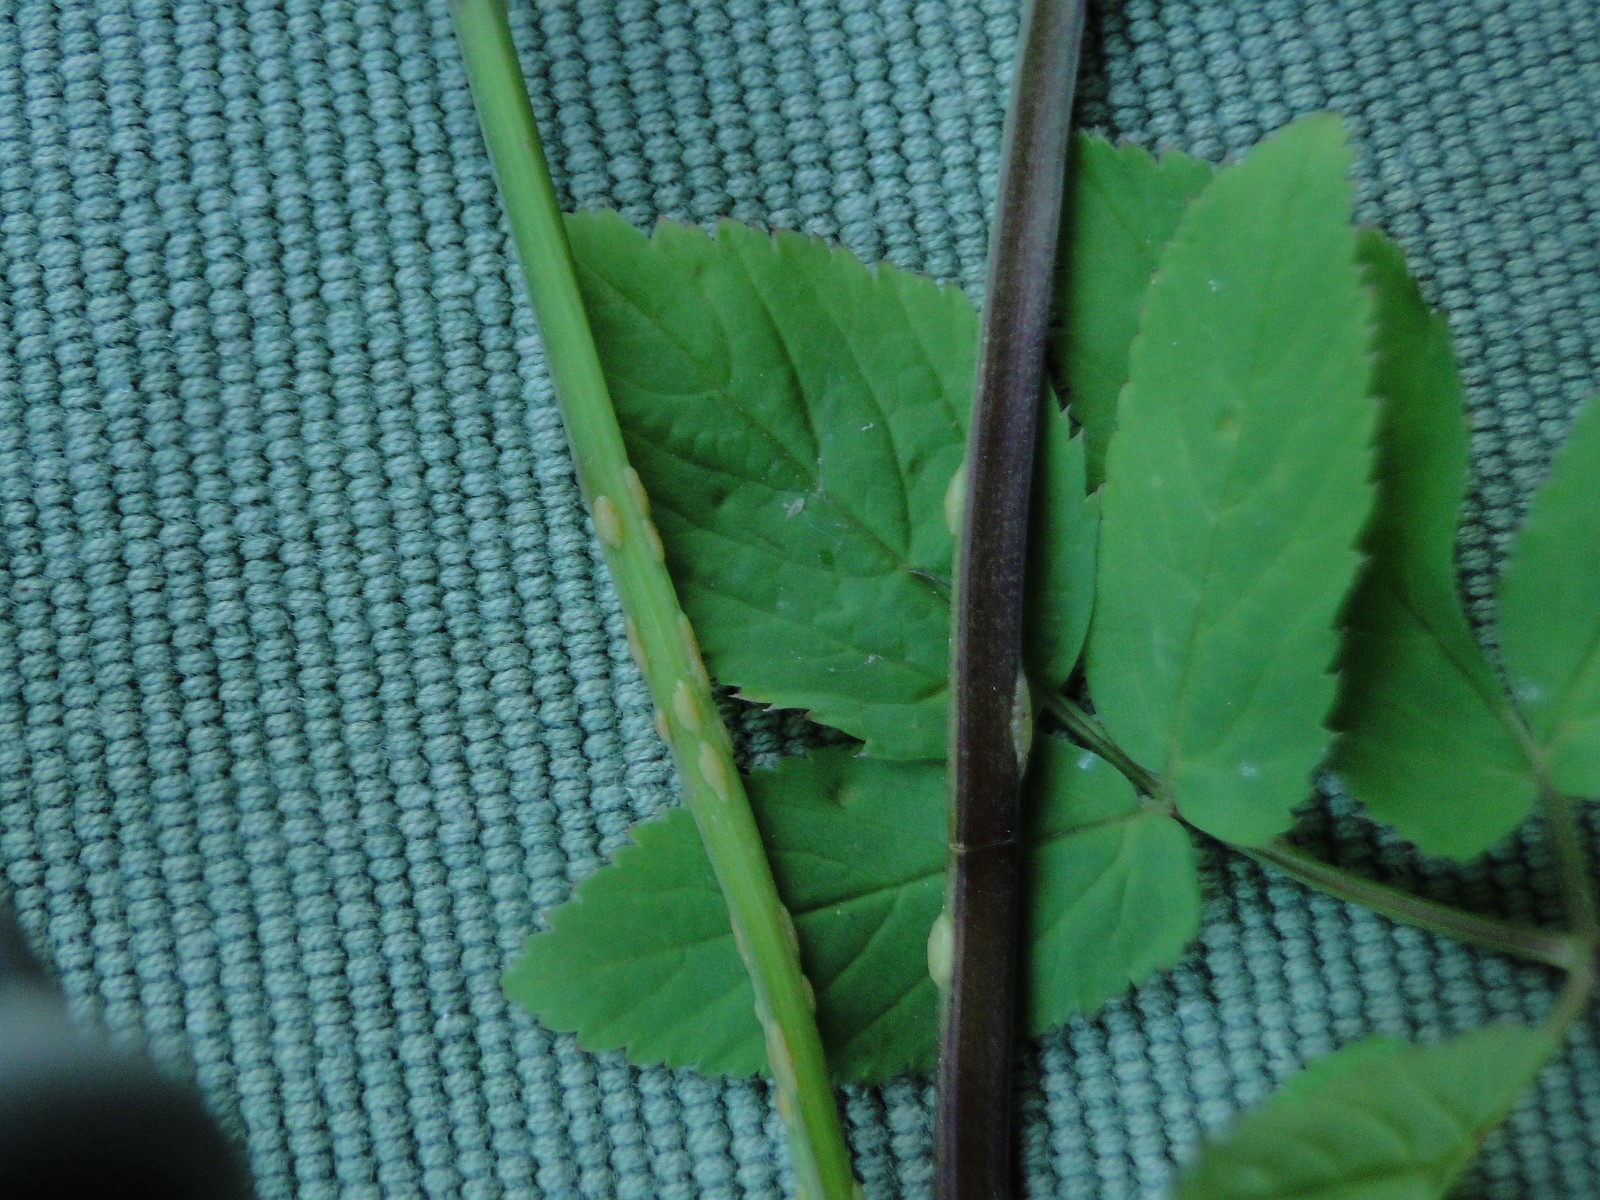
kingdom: Fungi
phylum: Ascomycota
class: Taphrinomycetes
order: Taphrinales
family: Taphrinaceae
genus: Protomyces
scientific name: Protomyces macrosporus
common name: skvalderkål-vablesæk
